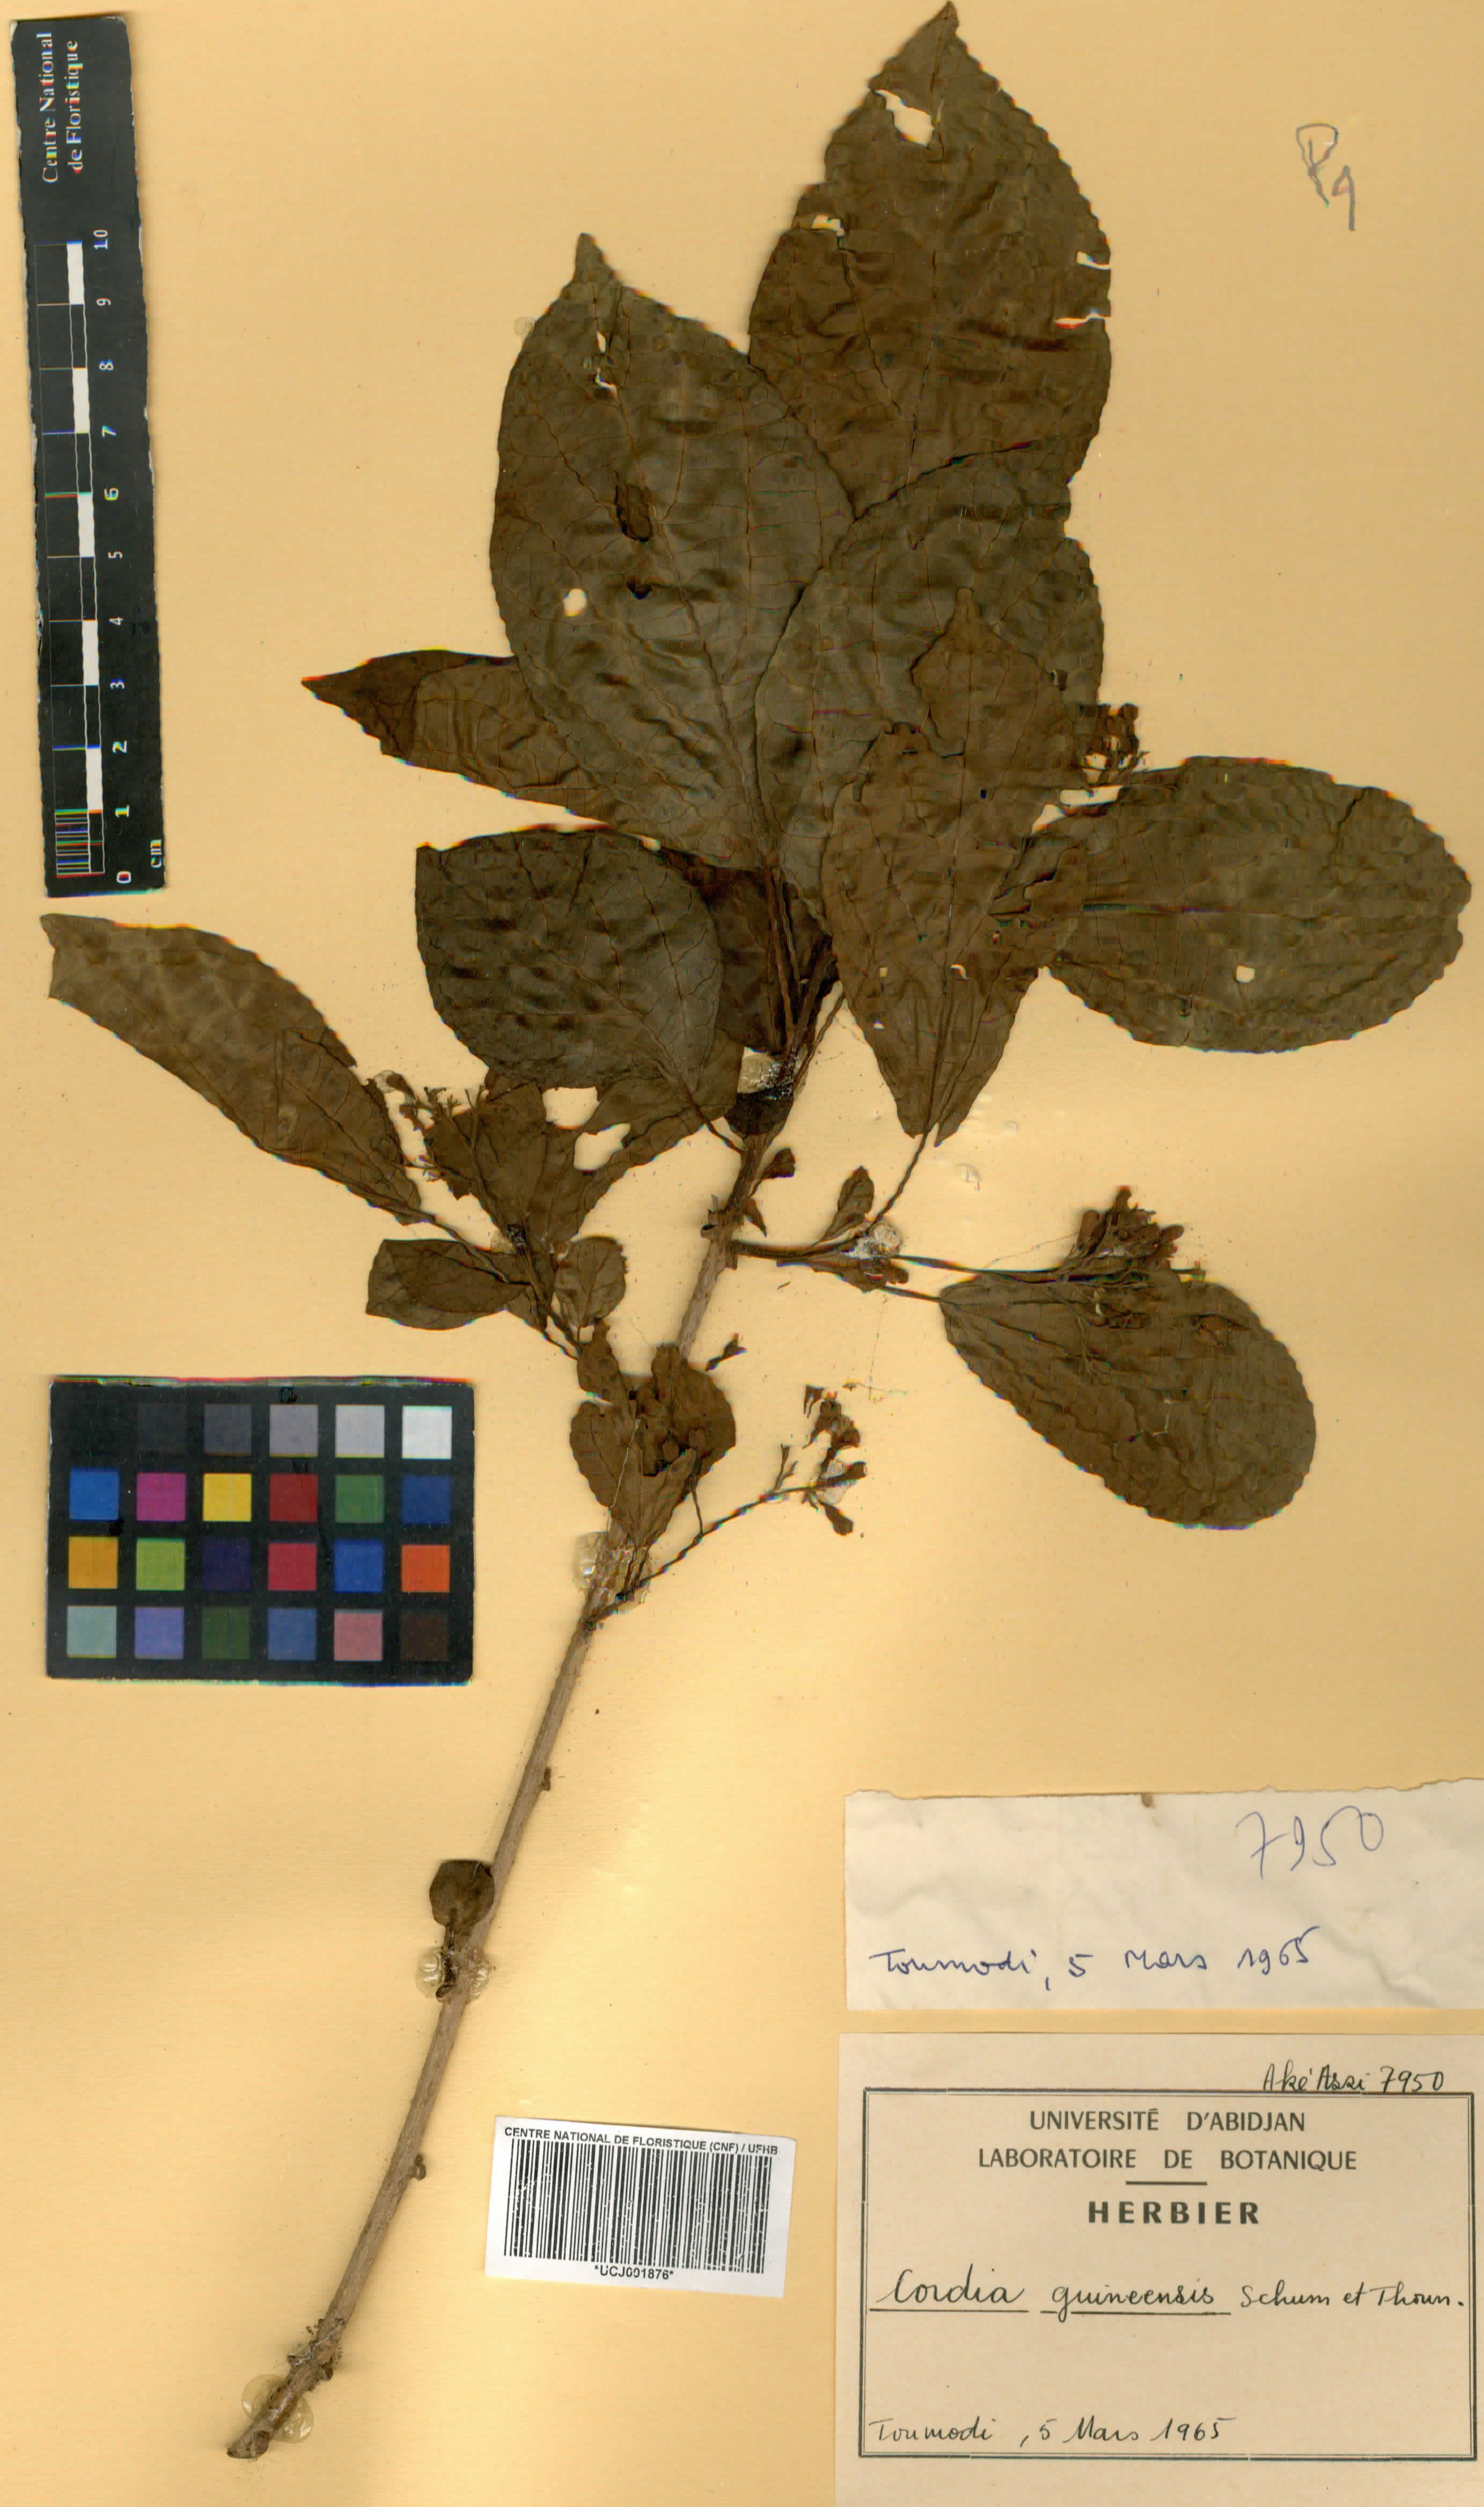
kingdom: Plantae
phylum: Tracheophyta
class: Magnoliopsida
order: Boraginales
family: Cordiaceae
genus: Cordia
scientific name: Cordia guineensis
